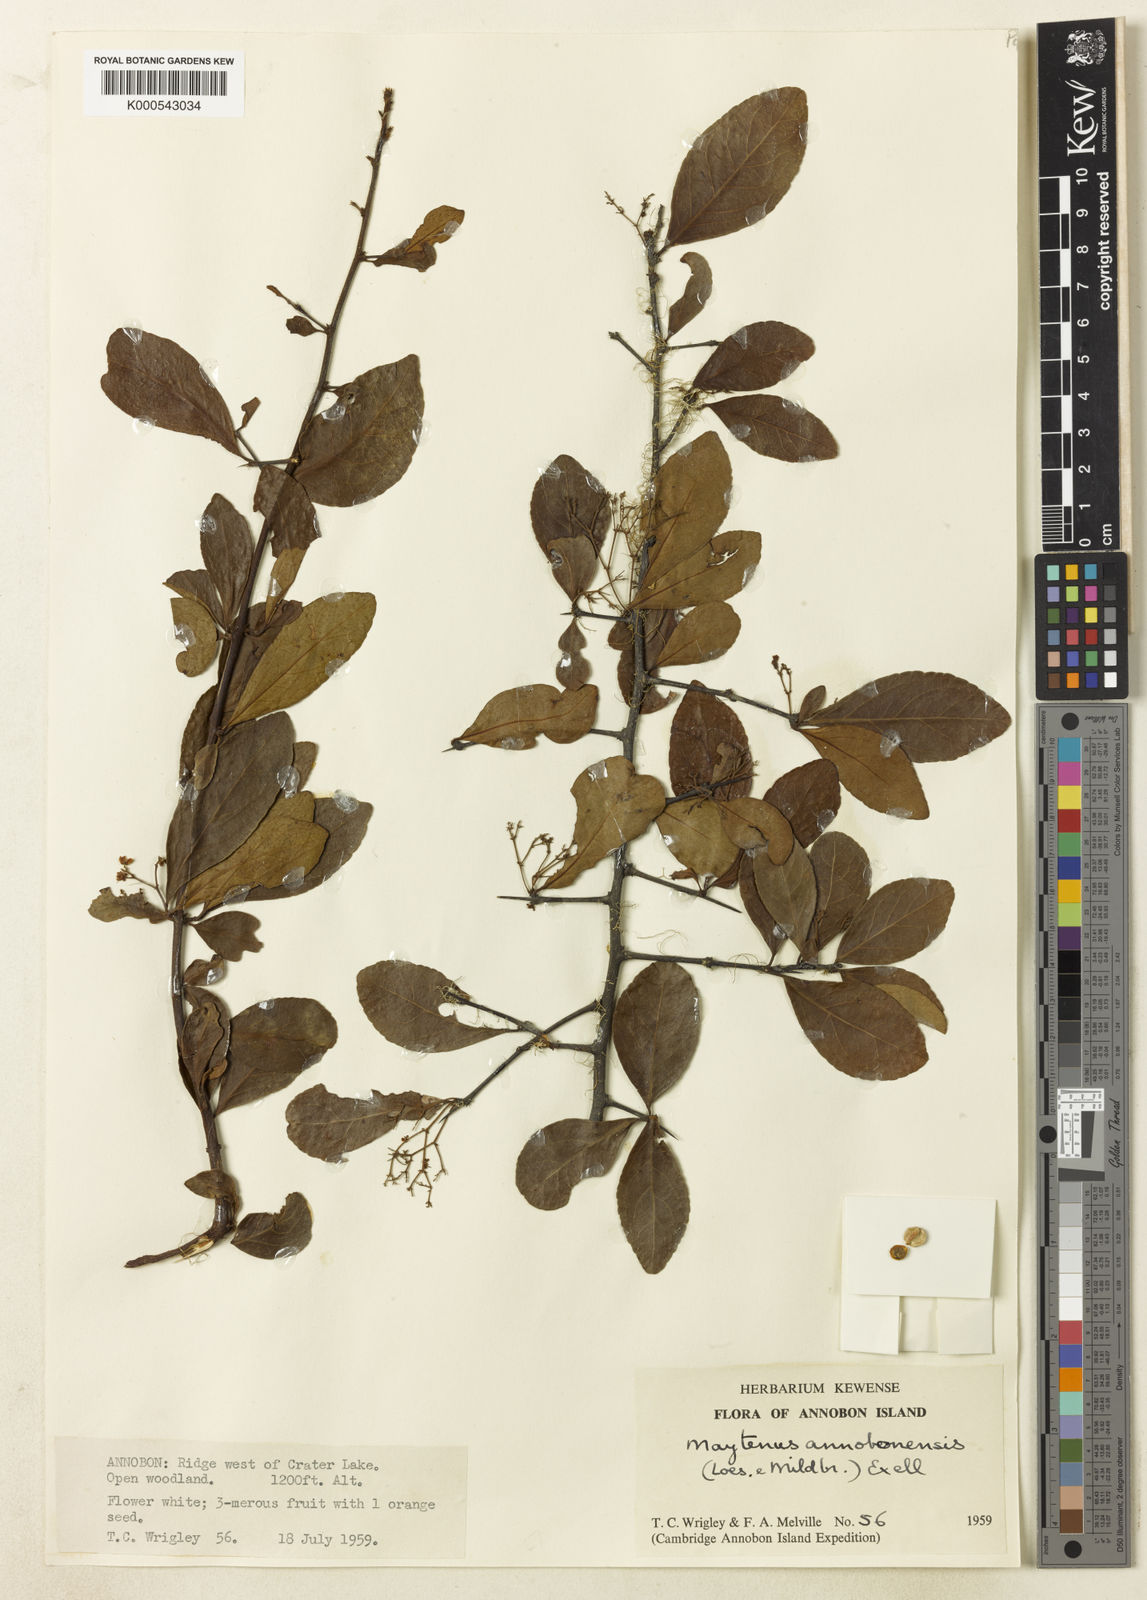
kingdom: Plantae
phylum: Tracheophyta
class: Magnoliopsida
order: Celastrales
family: Celastraceae
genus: Gymnosporia
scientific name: Gymnosporia annobonensis
